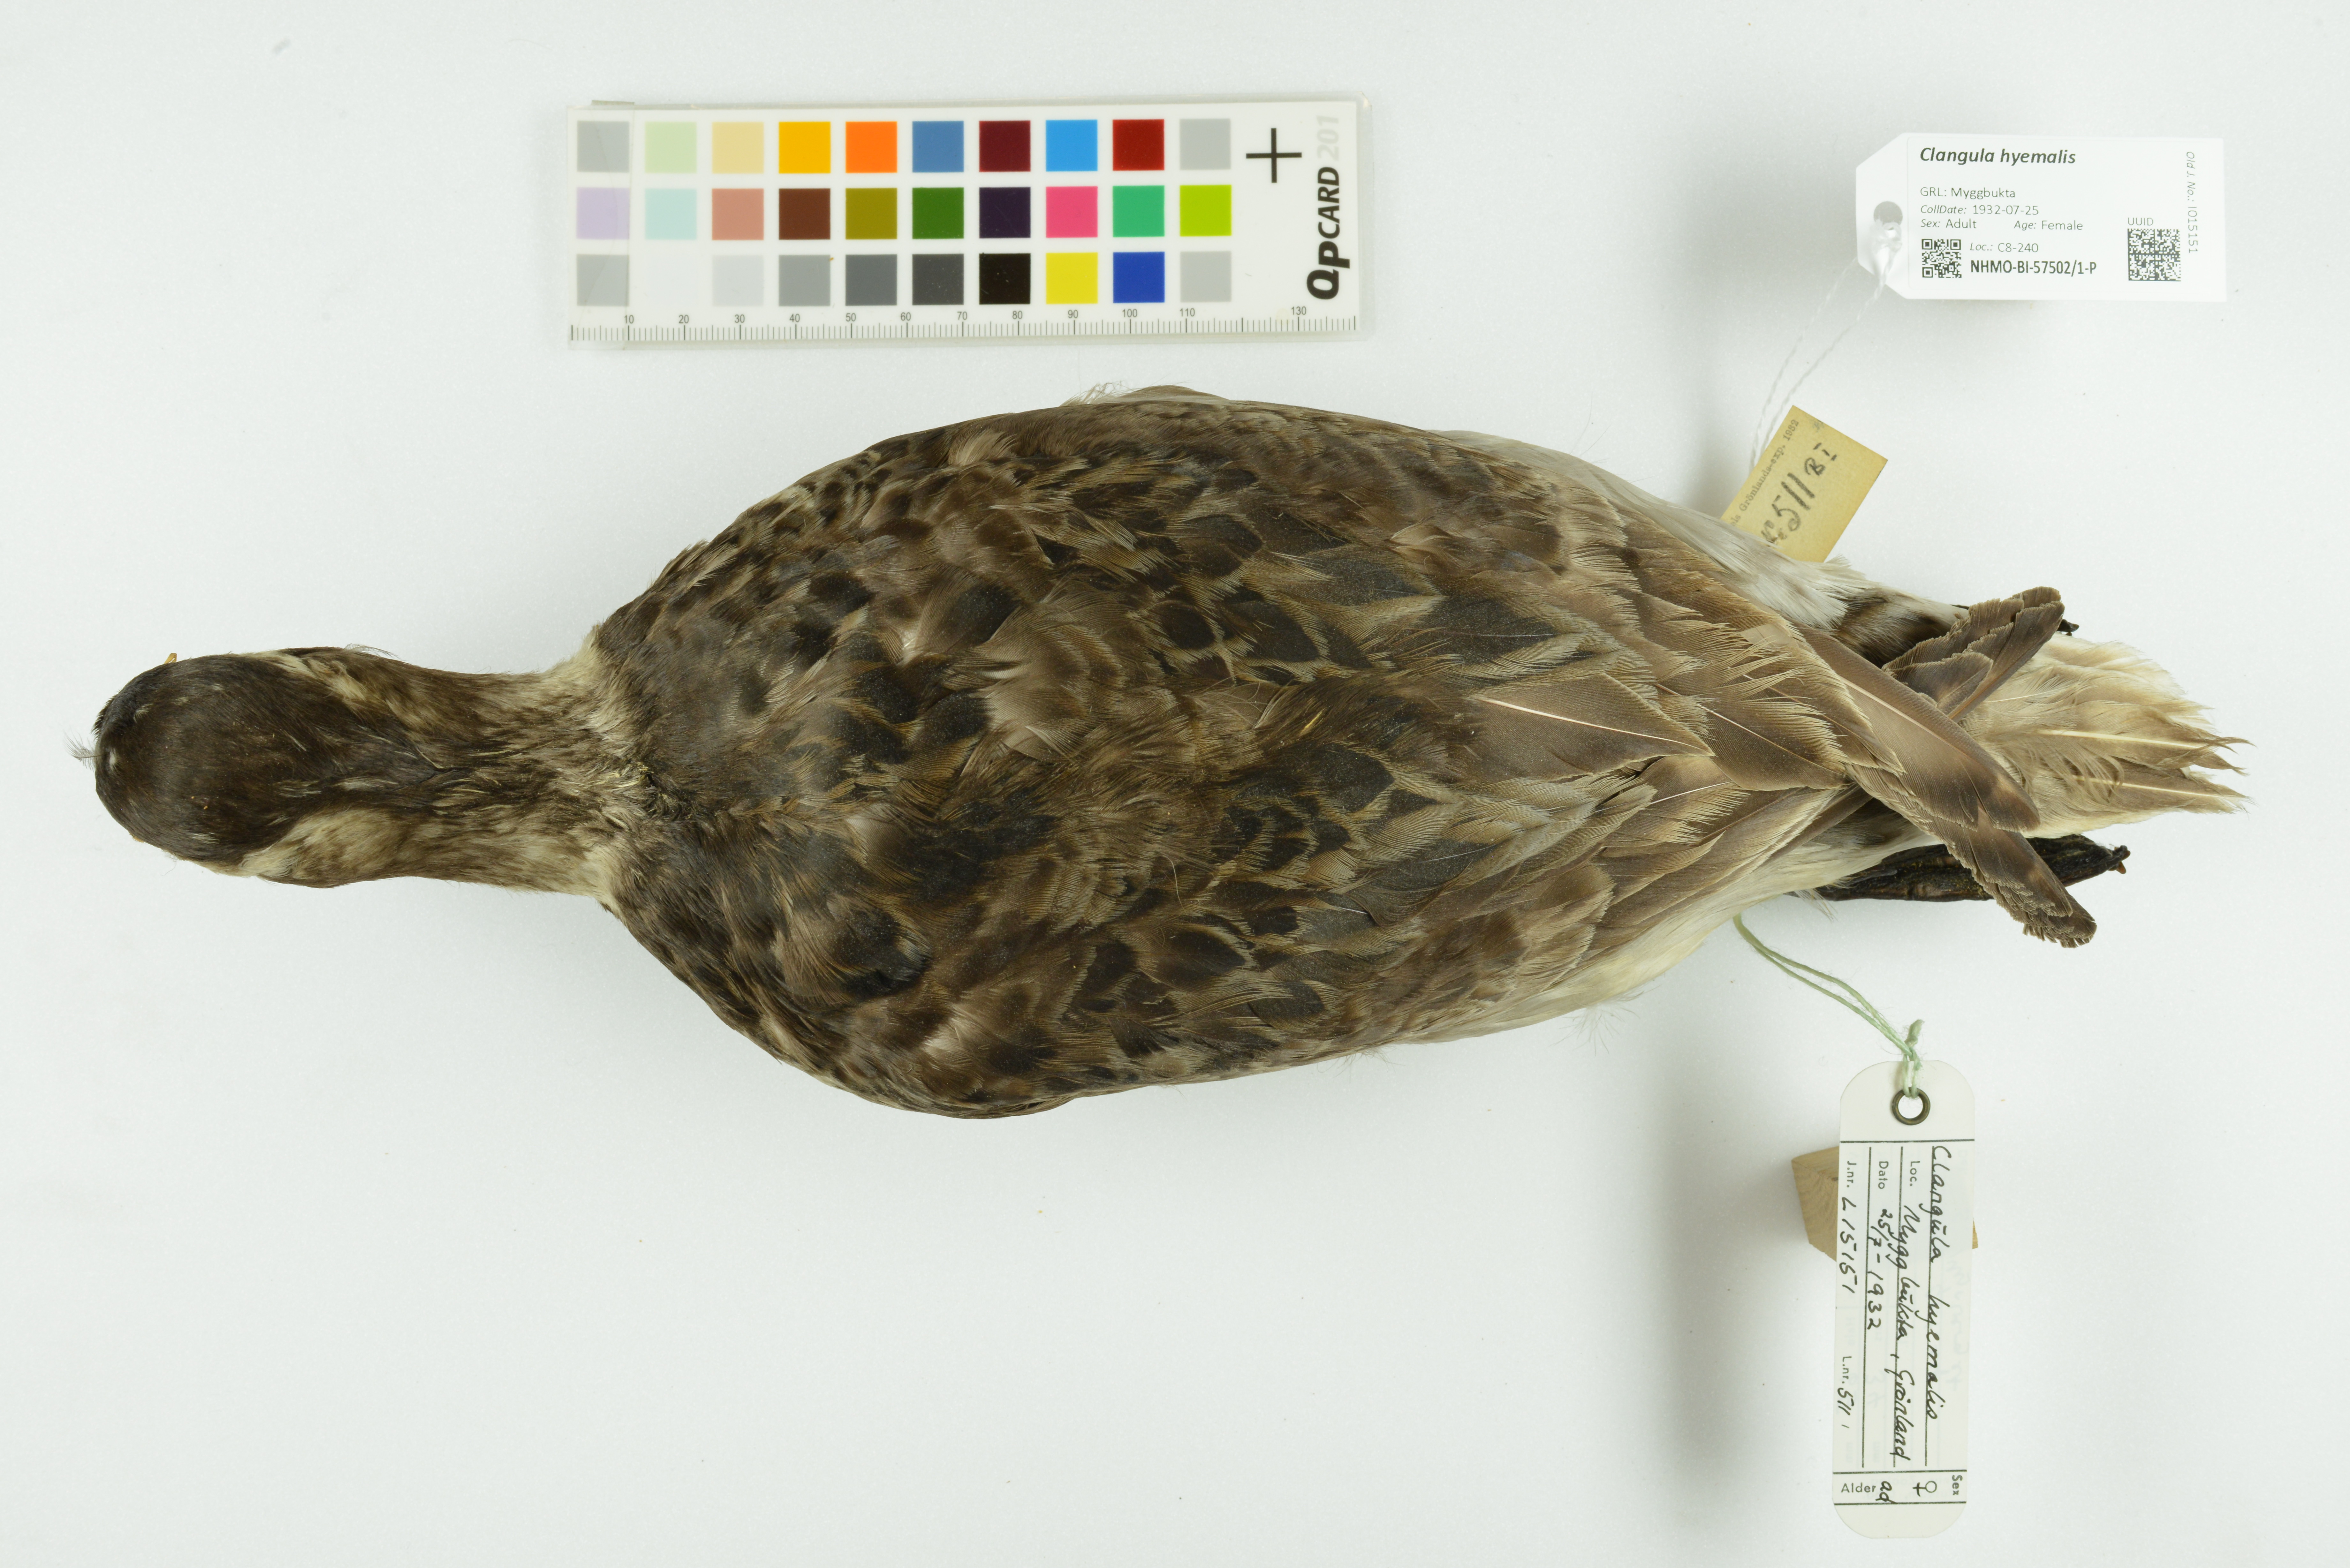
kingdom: Animalia
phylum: Chordata
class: Aves
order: Anseriformes
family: Anatidae
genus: Clangula
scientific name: Clangula hyemalis
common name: Long-tailed duck
